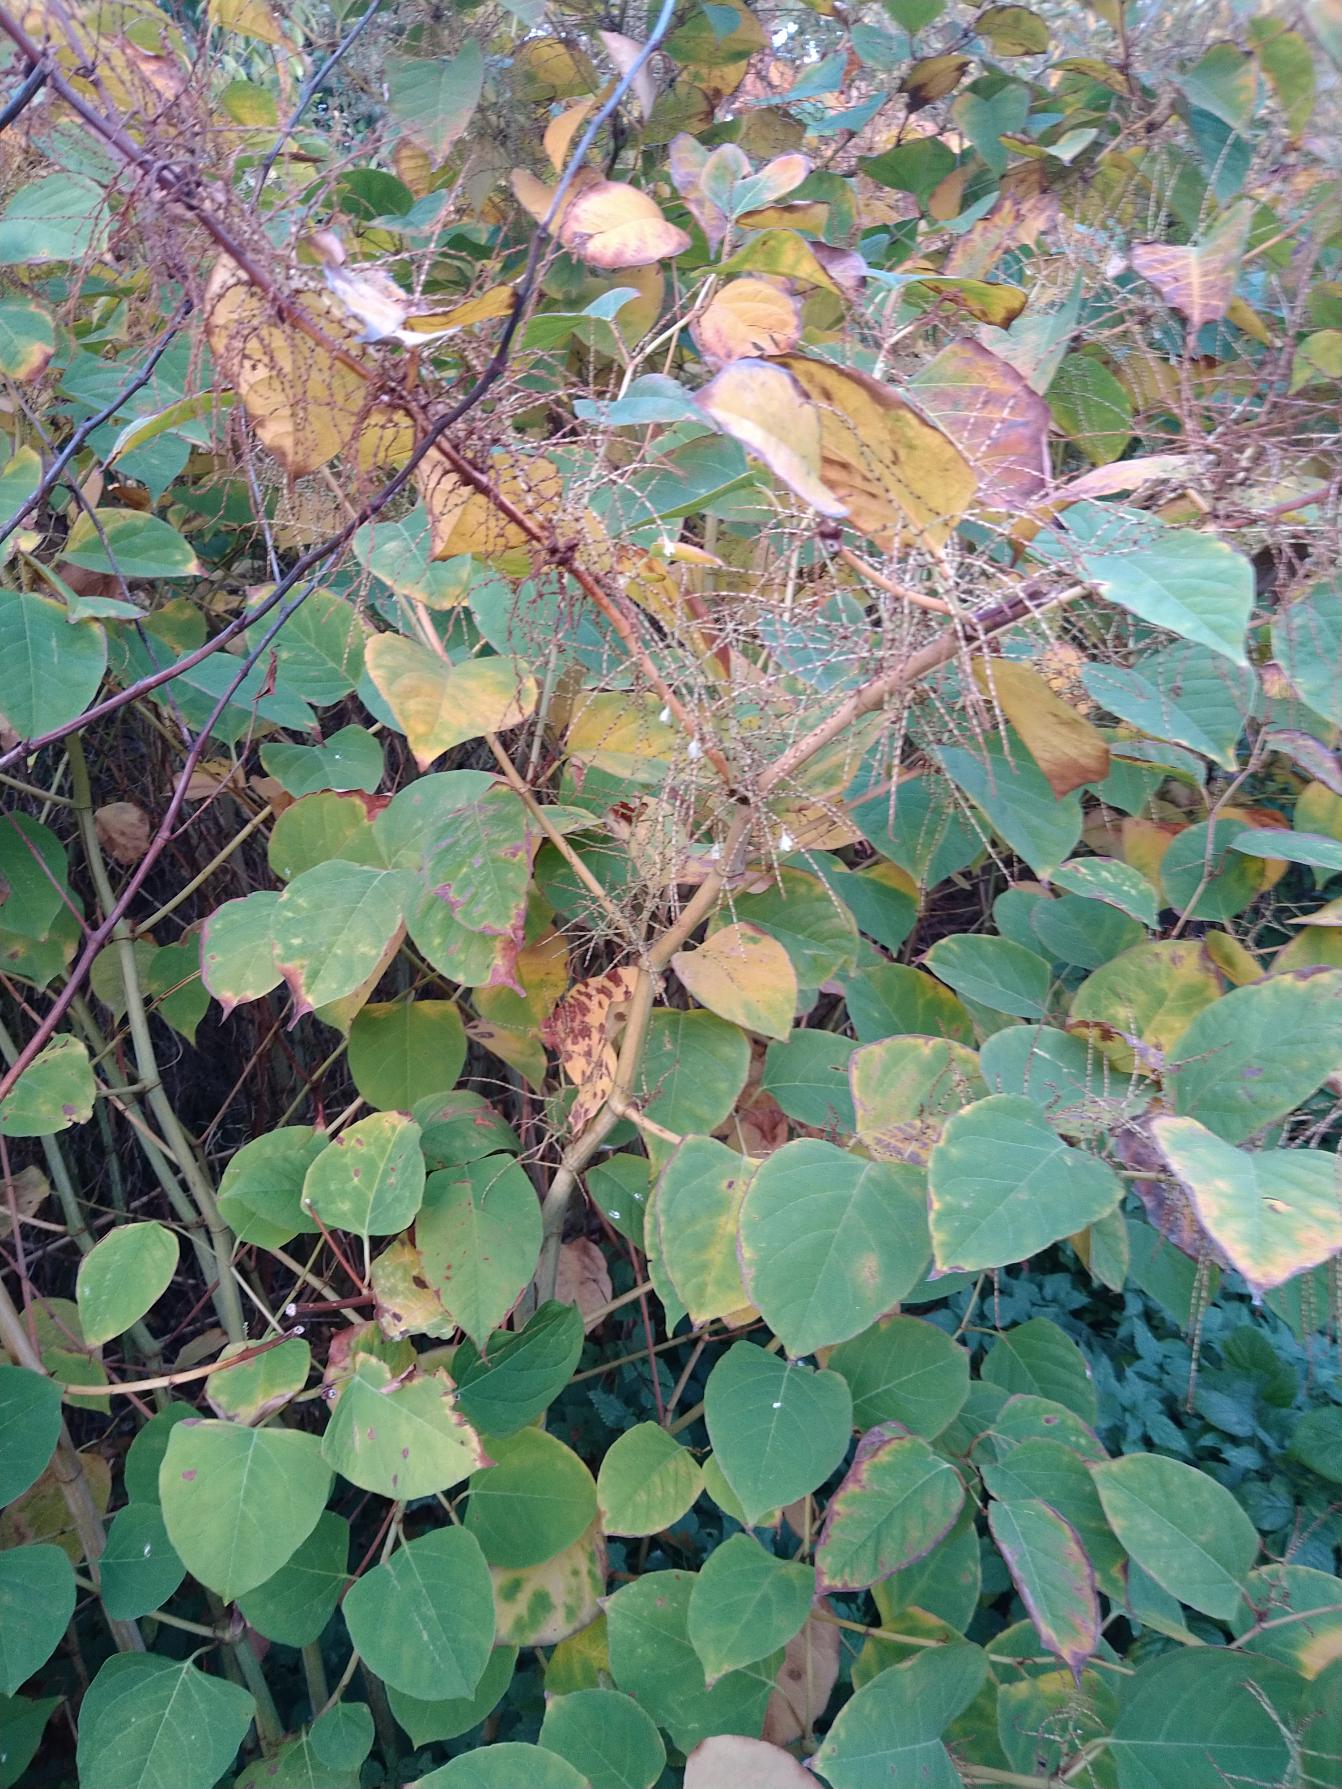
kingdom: Plantae
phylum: Tracheophyta
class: Magnoliopsida
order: Caryophyllales
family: Polygonaceae
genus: Reynoutria
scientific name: Reynoutria japonica
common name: Japan-pileurt
